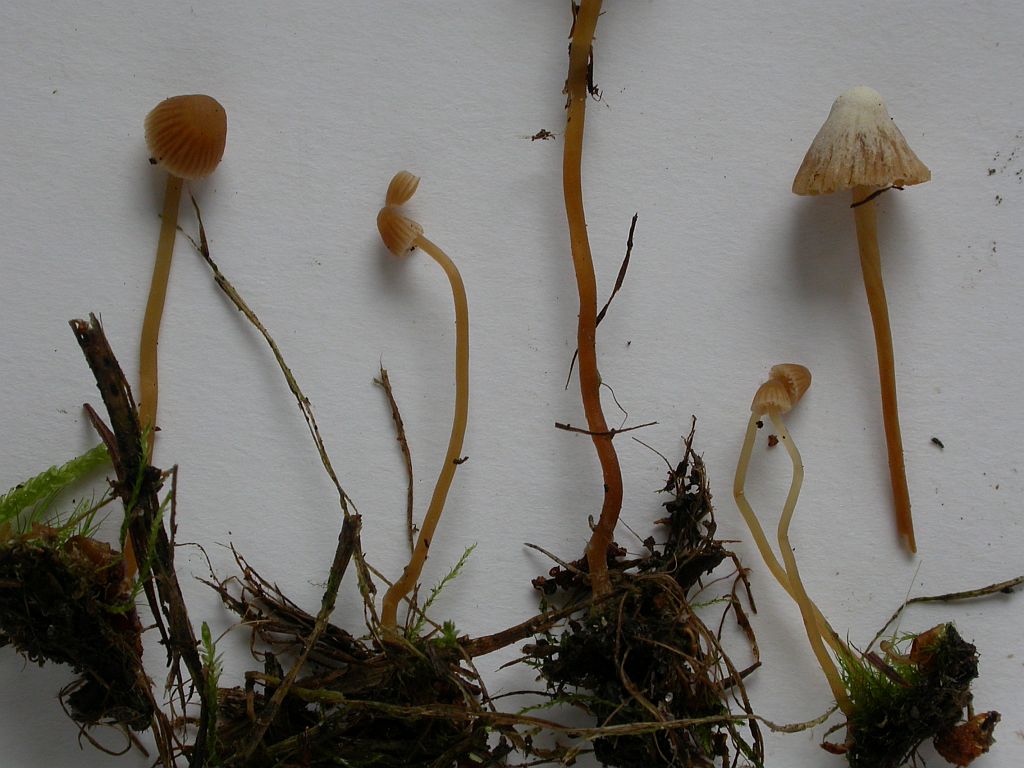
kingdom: Fungi
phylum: Basidiomycota
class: Agaricomycetes
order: Agaricales
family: Hymenogastraceae
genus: Galerina
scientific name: Galerina vittiformis
